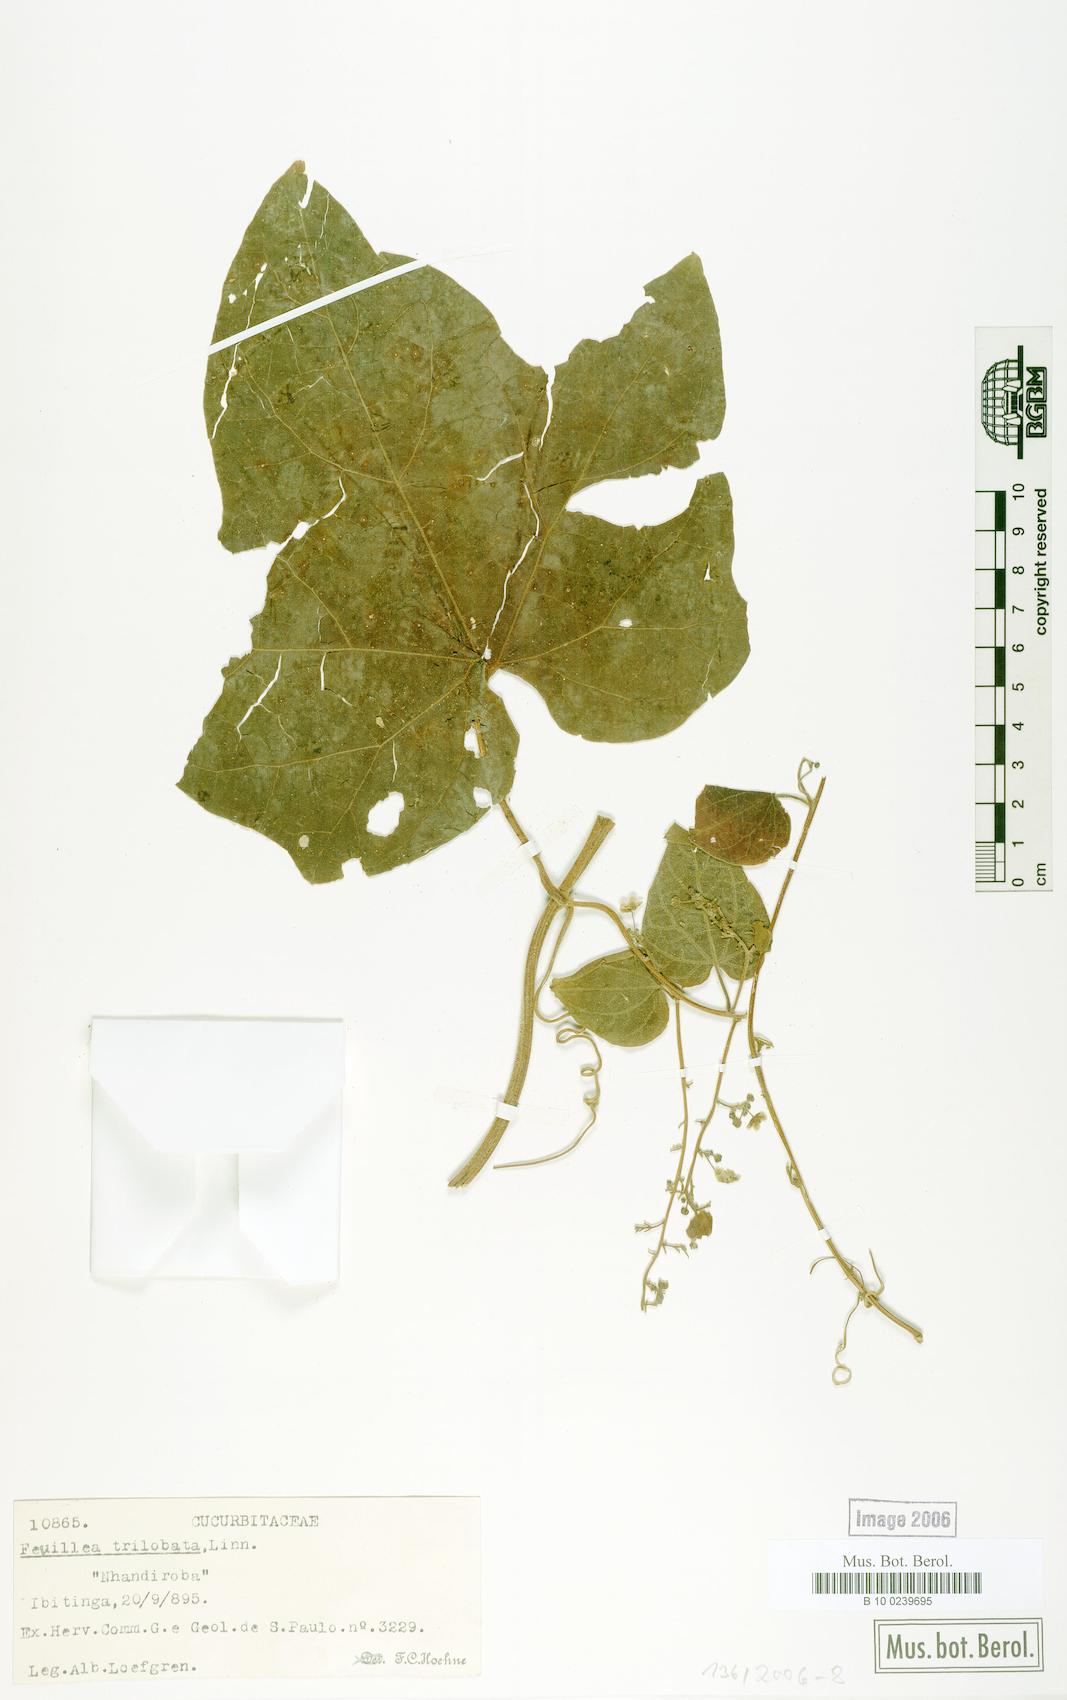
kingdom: Plantae
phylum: Tracheophyta
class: Magnoliopsida
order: Cucurbitales
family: Cucurbitaceae
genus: Fevillea
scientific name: Fevillea trilobata
